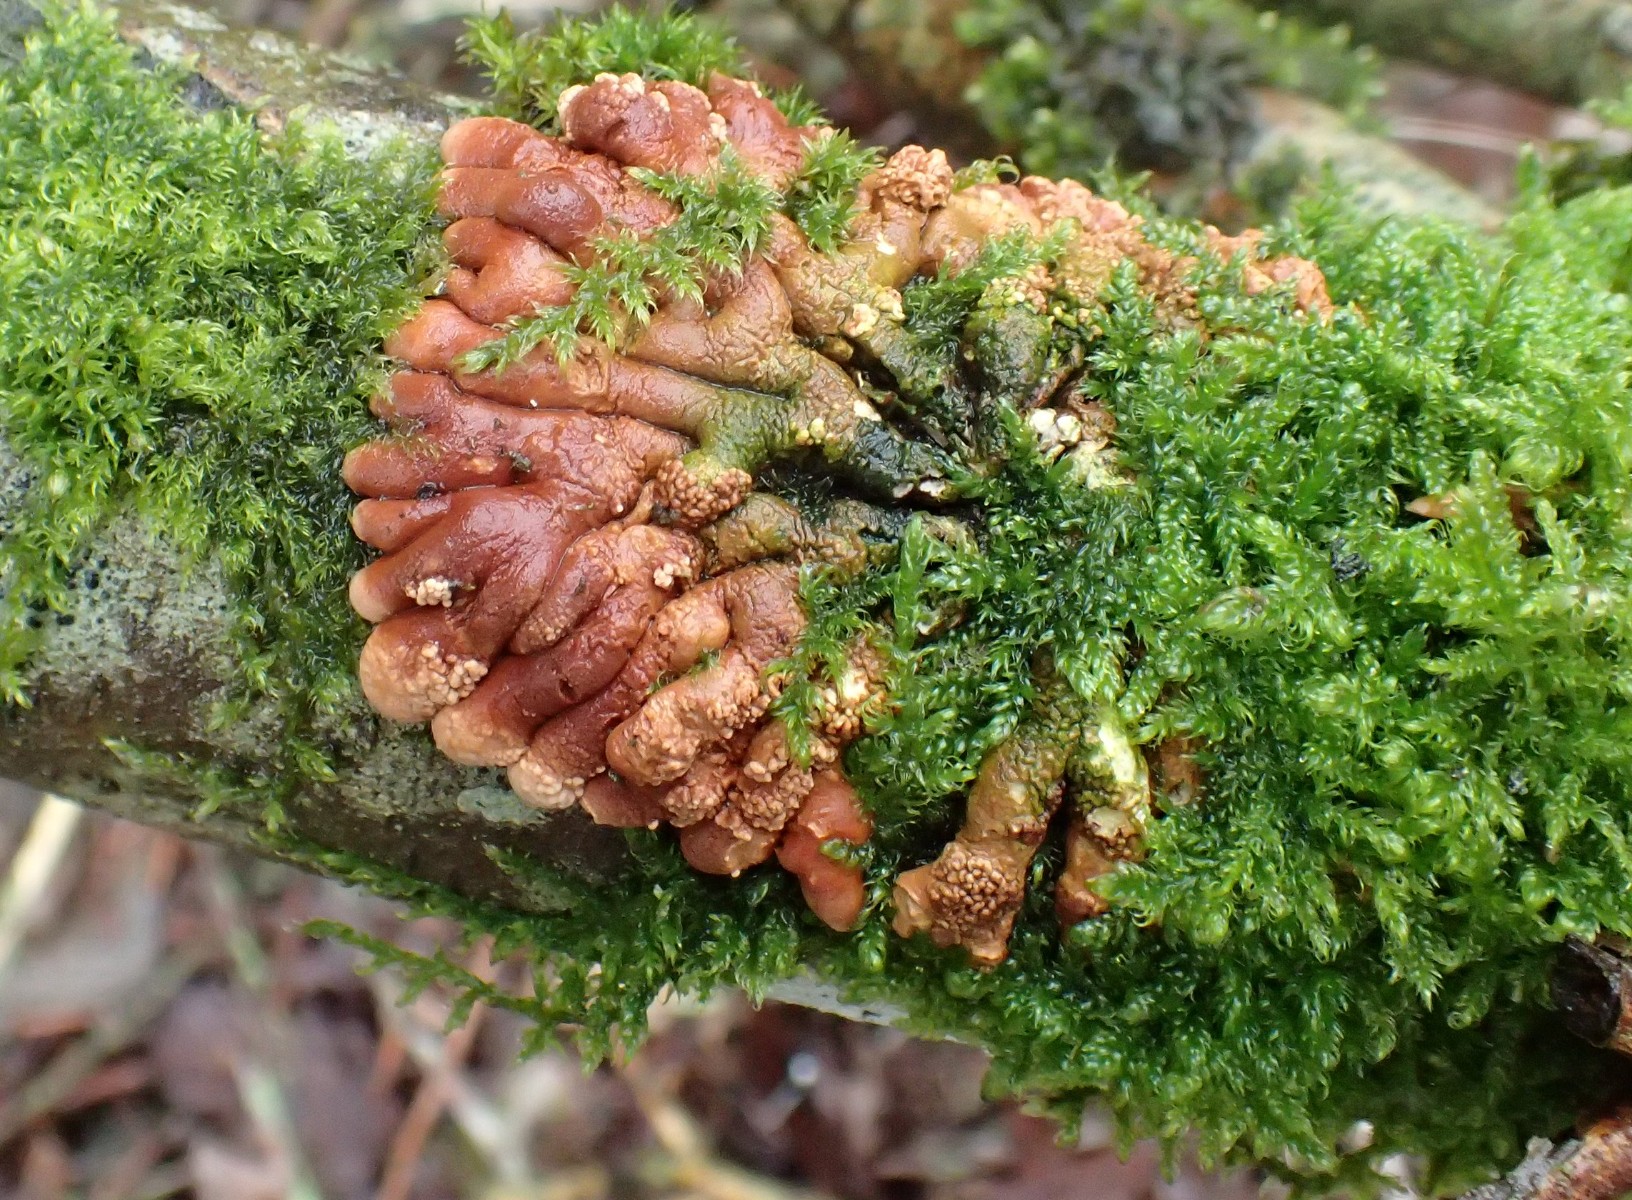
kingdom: Fungi
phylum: Ascomycota
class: Sordariomycetes
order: Hypocreales
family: Hypocreaceae
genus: Hypocreopsis
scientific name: Hypocreopsis lichenoides
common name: pilfinger
